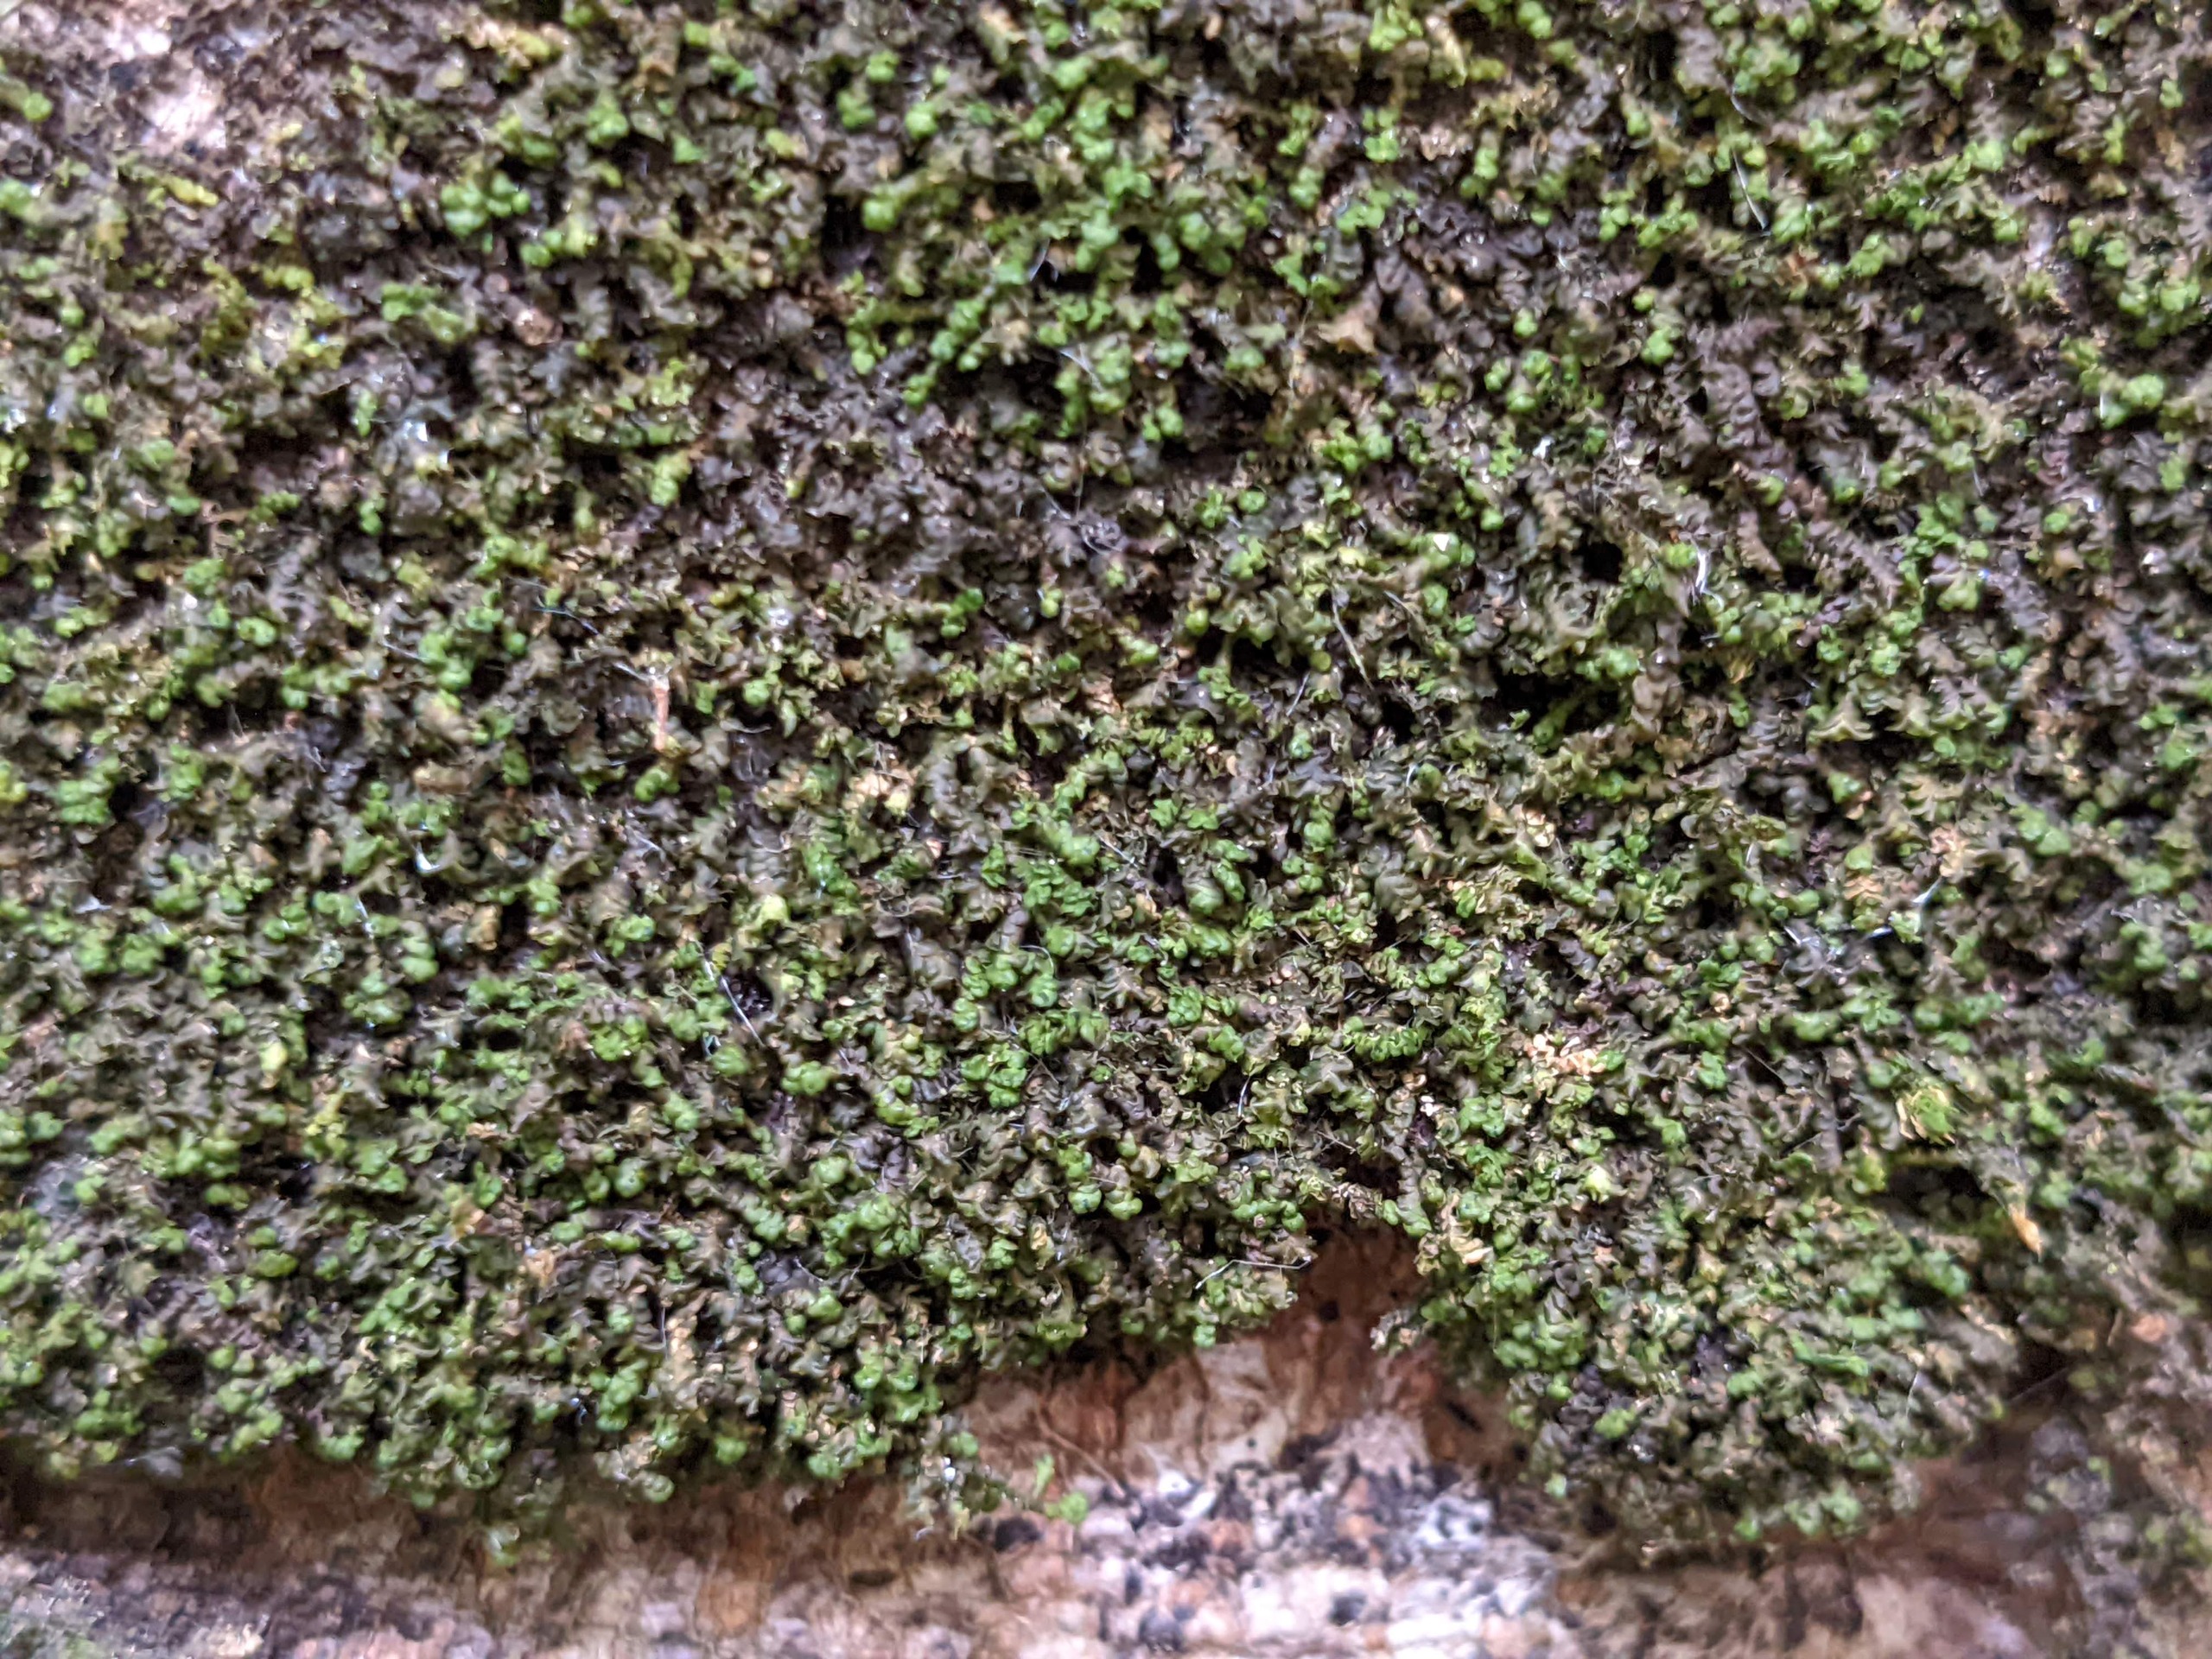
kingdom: Plantae
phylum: Marchantiophyta
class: Jungermanniopsida
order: Porellales
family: Frullaniaceae
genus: Frullania
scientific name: Frullania dilatata
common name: Mat bronzemos
